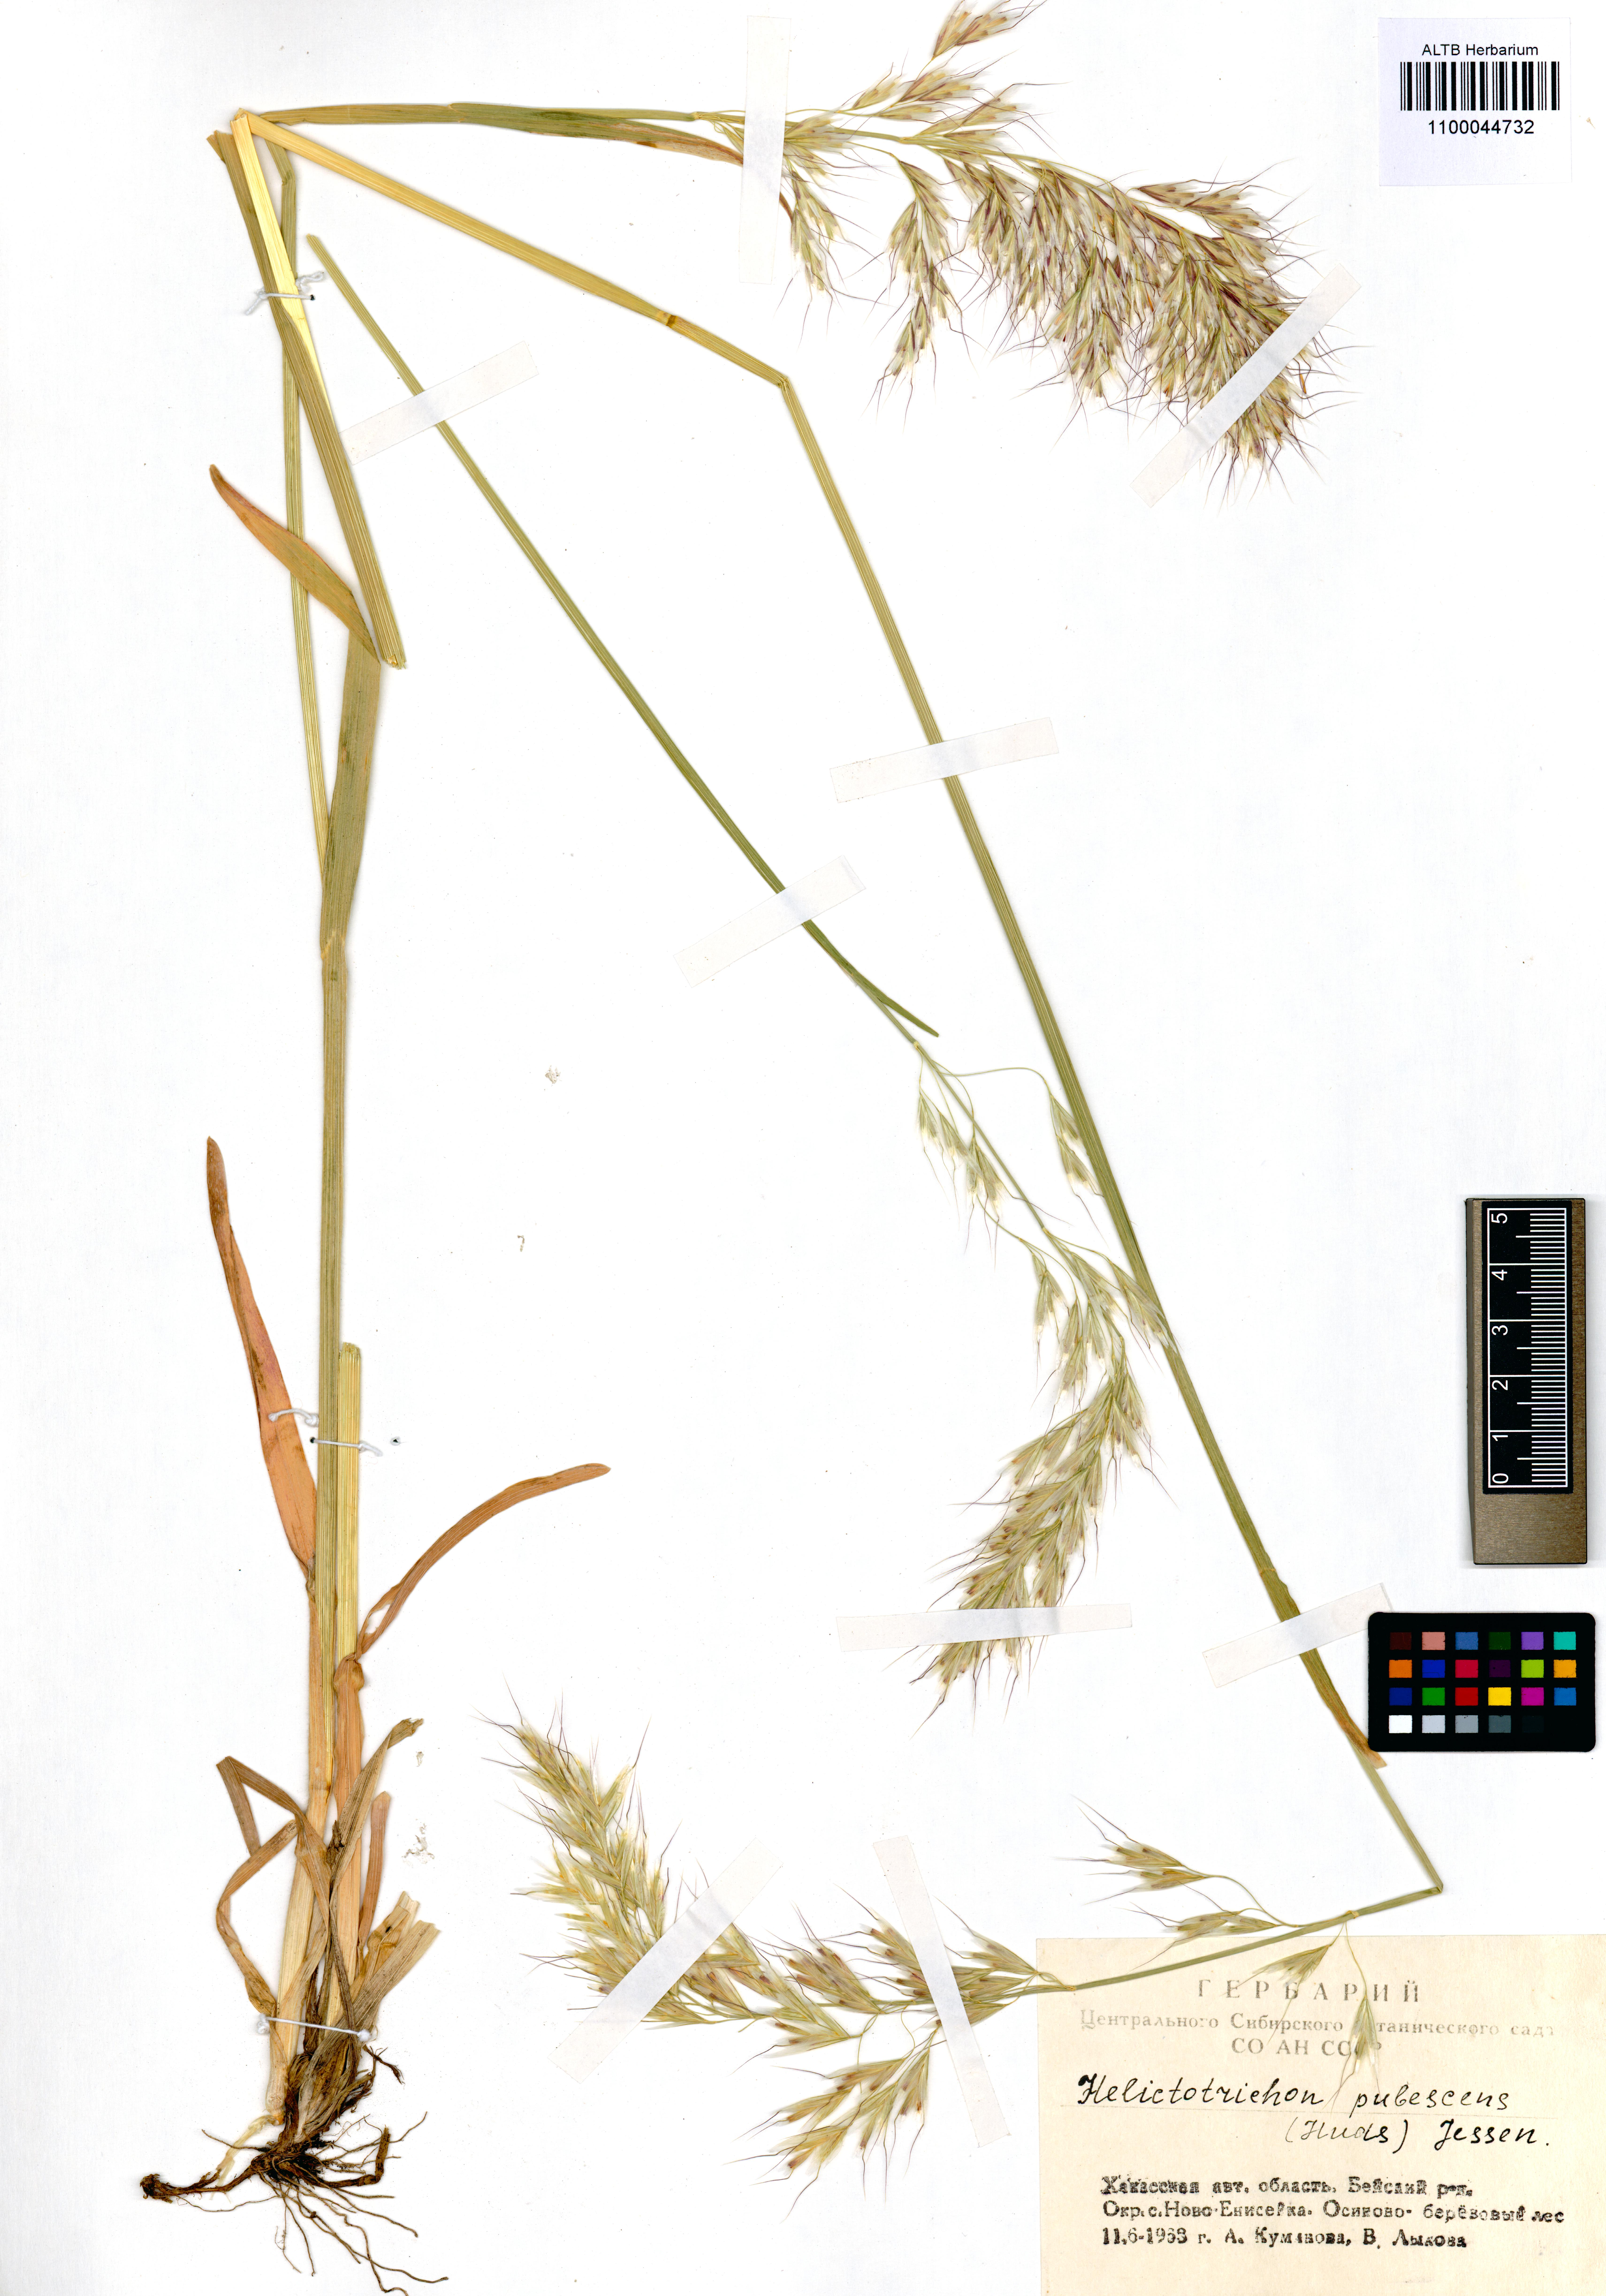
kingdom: Plantae
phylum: Tracheophyta
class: Liliopsida
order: Poales
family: Poaceae
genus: Avenula
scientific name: Avenula pubescens
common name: Downy alpine oatgrass
